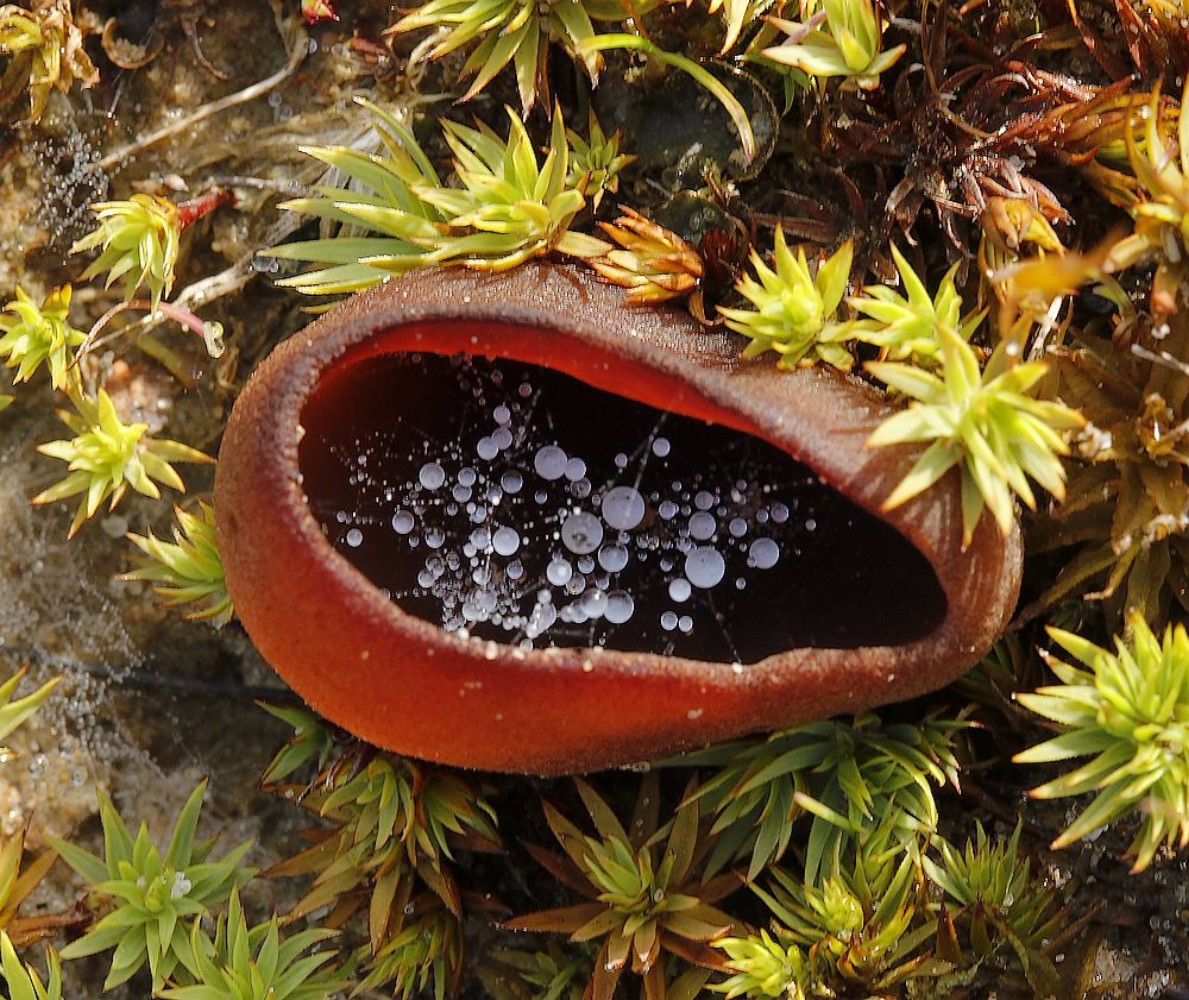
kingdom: Fungi
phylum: Ascomycota
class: Pezizomycetes
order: Pezizales
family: Pezizaceae
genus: Legaliana
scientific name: Legaliana badia
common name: leverbrun bægersvamp
